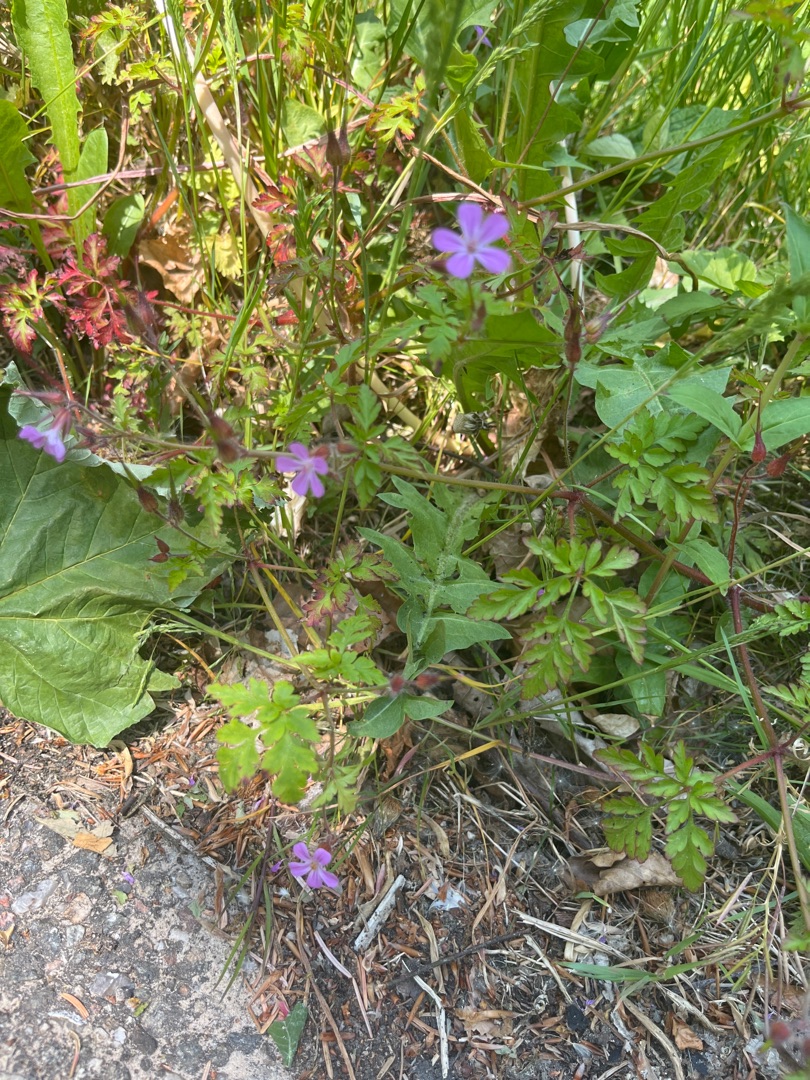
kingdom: Plantae
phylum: Tracheophyta
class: Magnoliopsida
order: Geraniales
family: Geraniaceae
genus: Geranium
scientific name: Geranium robertianum
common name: Stinkende storkenæb
